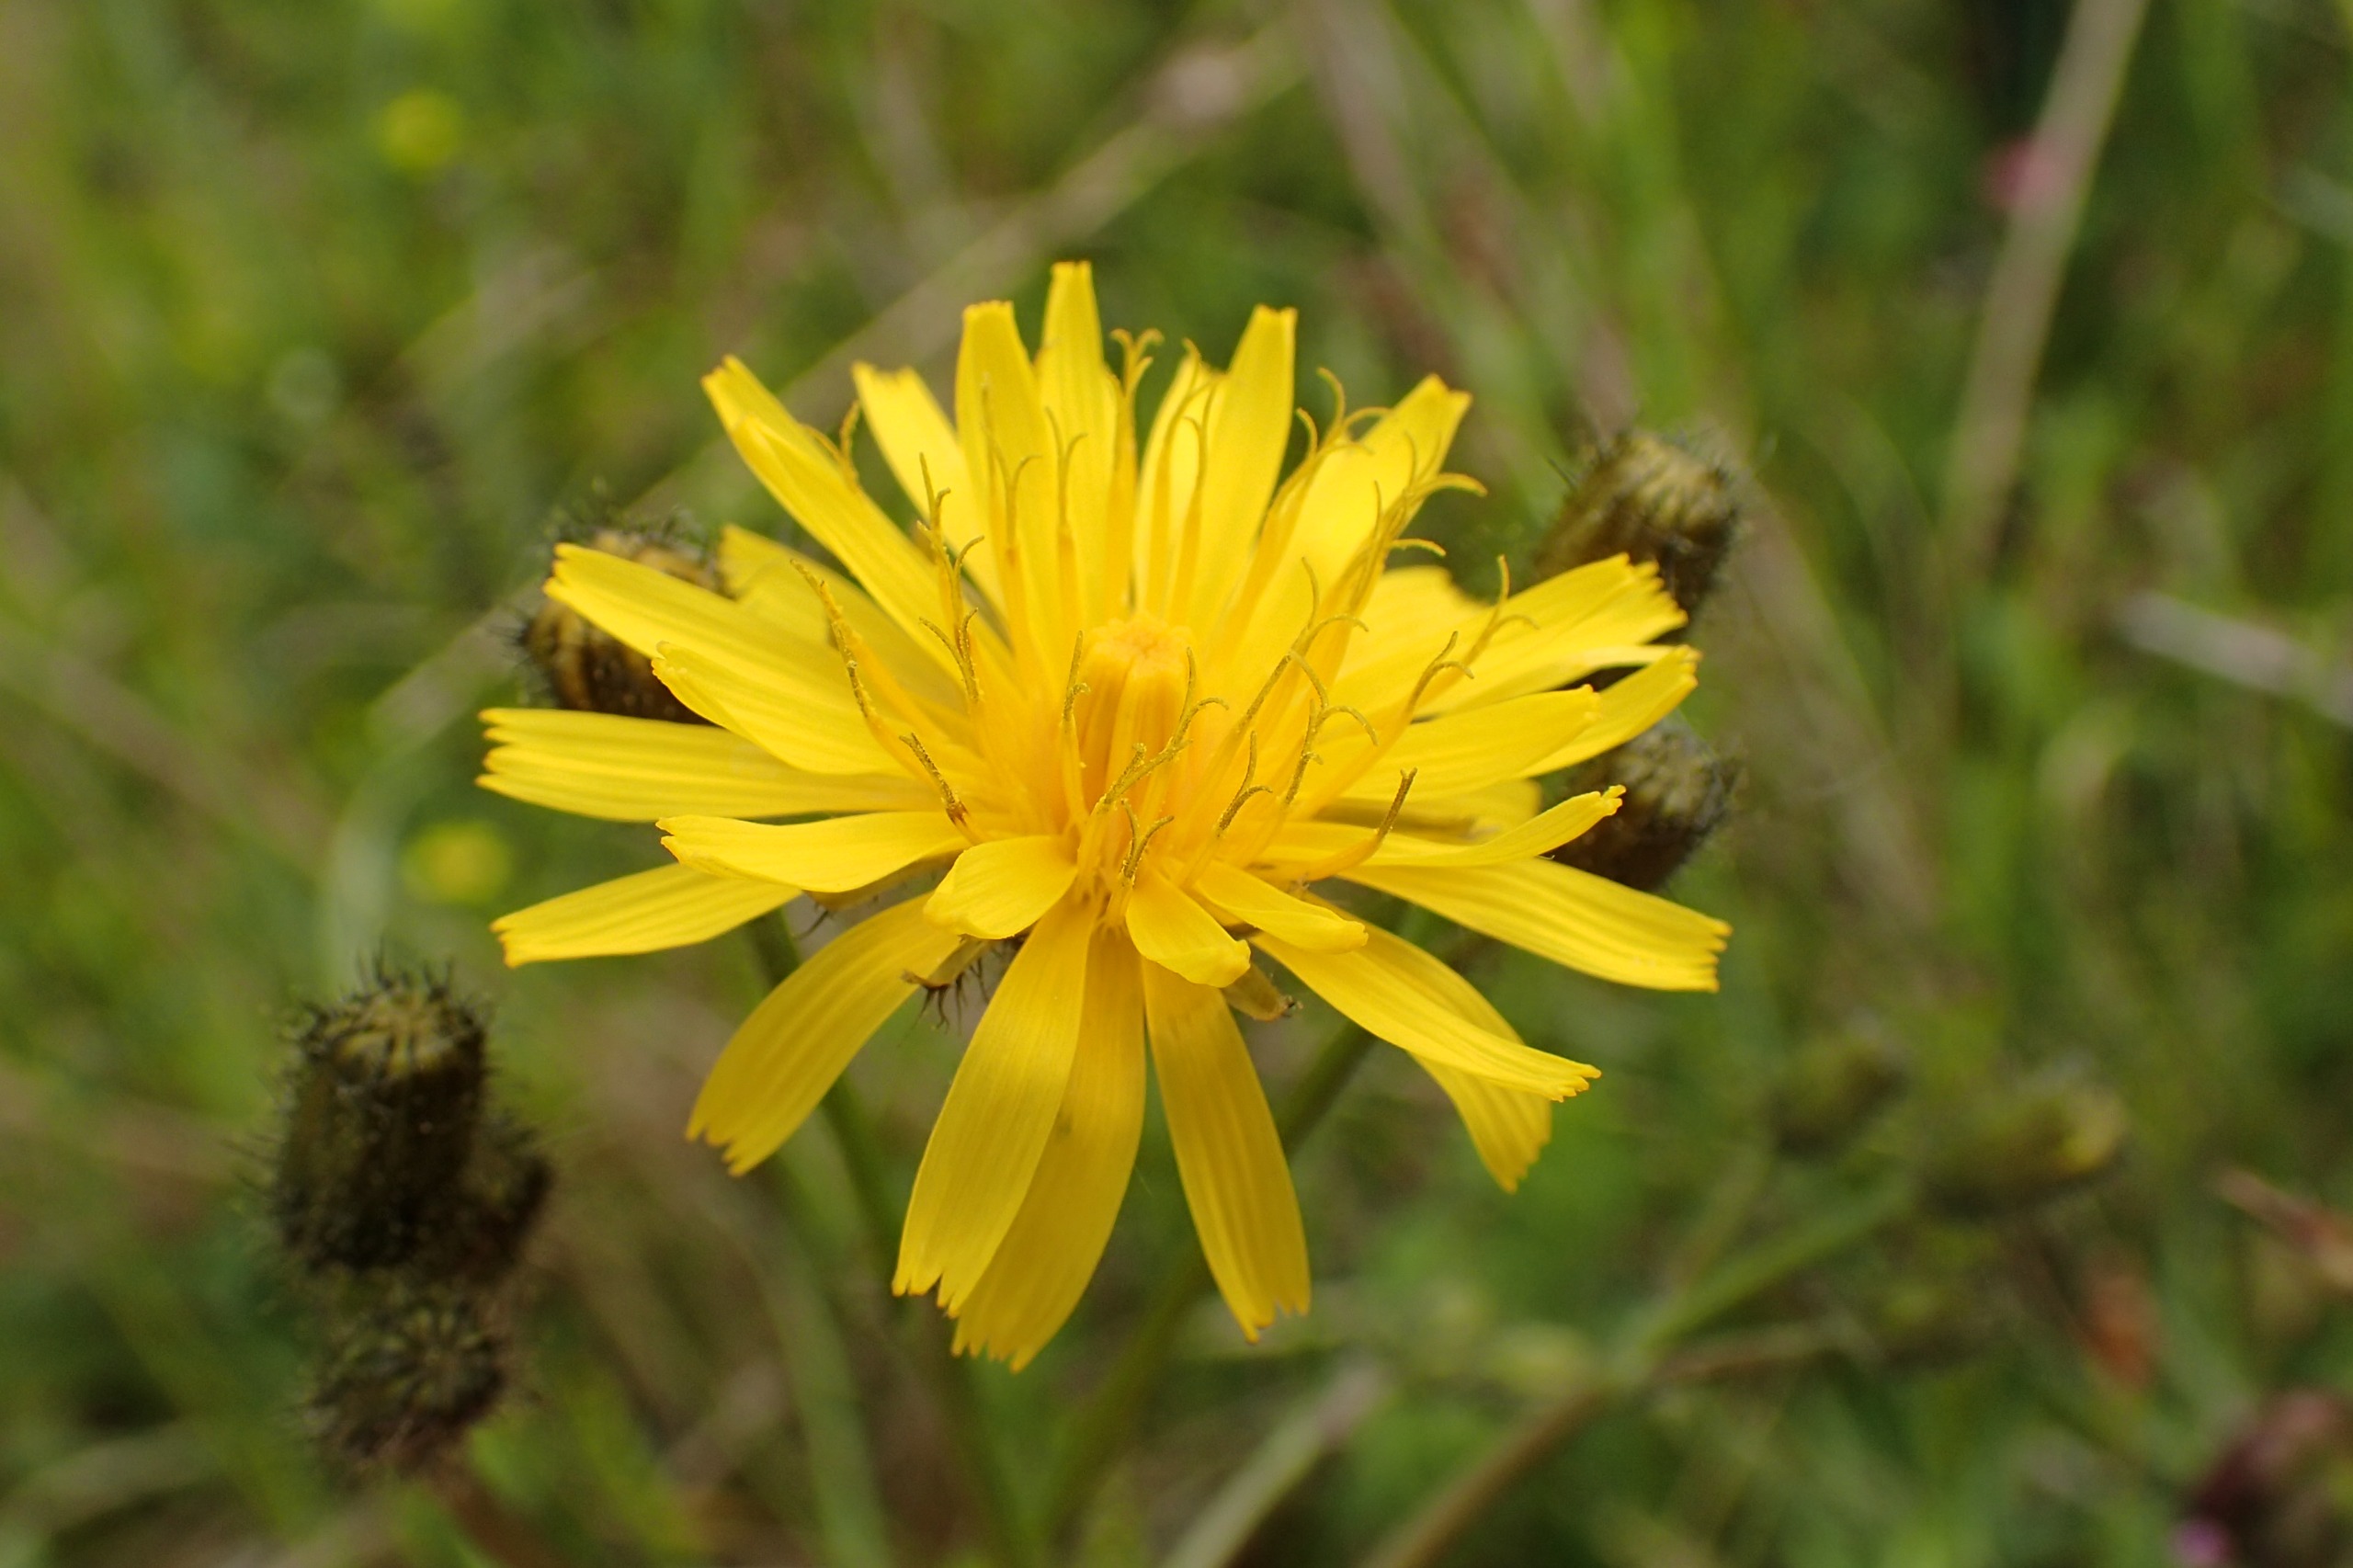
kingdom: Plantae
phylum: Tracheophyta
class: Magnoliopsida
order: Asterales
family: Asteraceae
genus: Crepis
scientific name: Crepis paludosa
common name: Kær-høgeskæg
